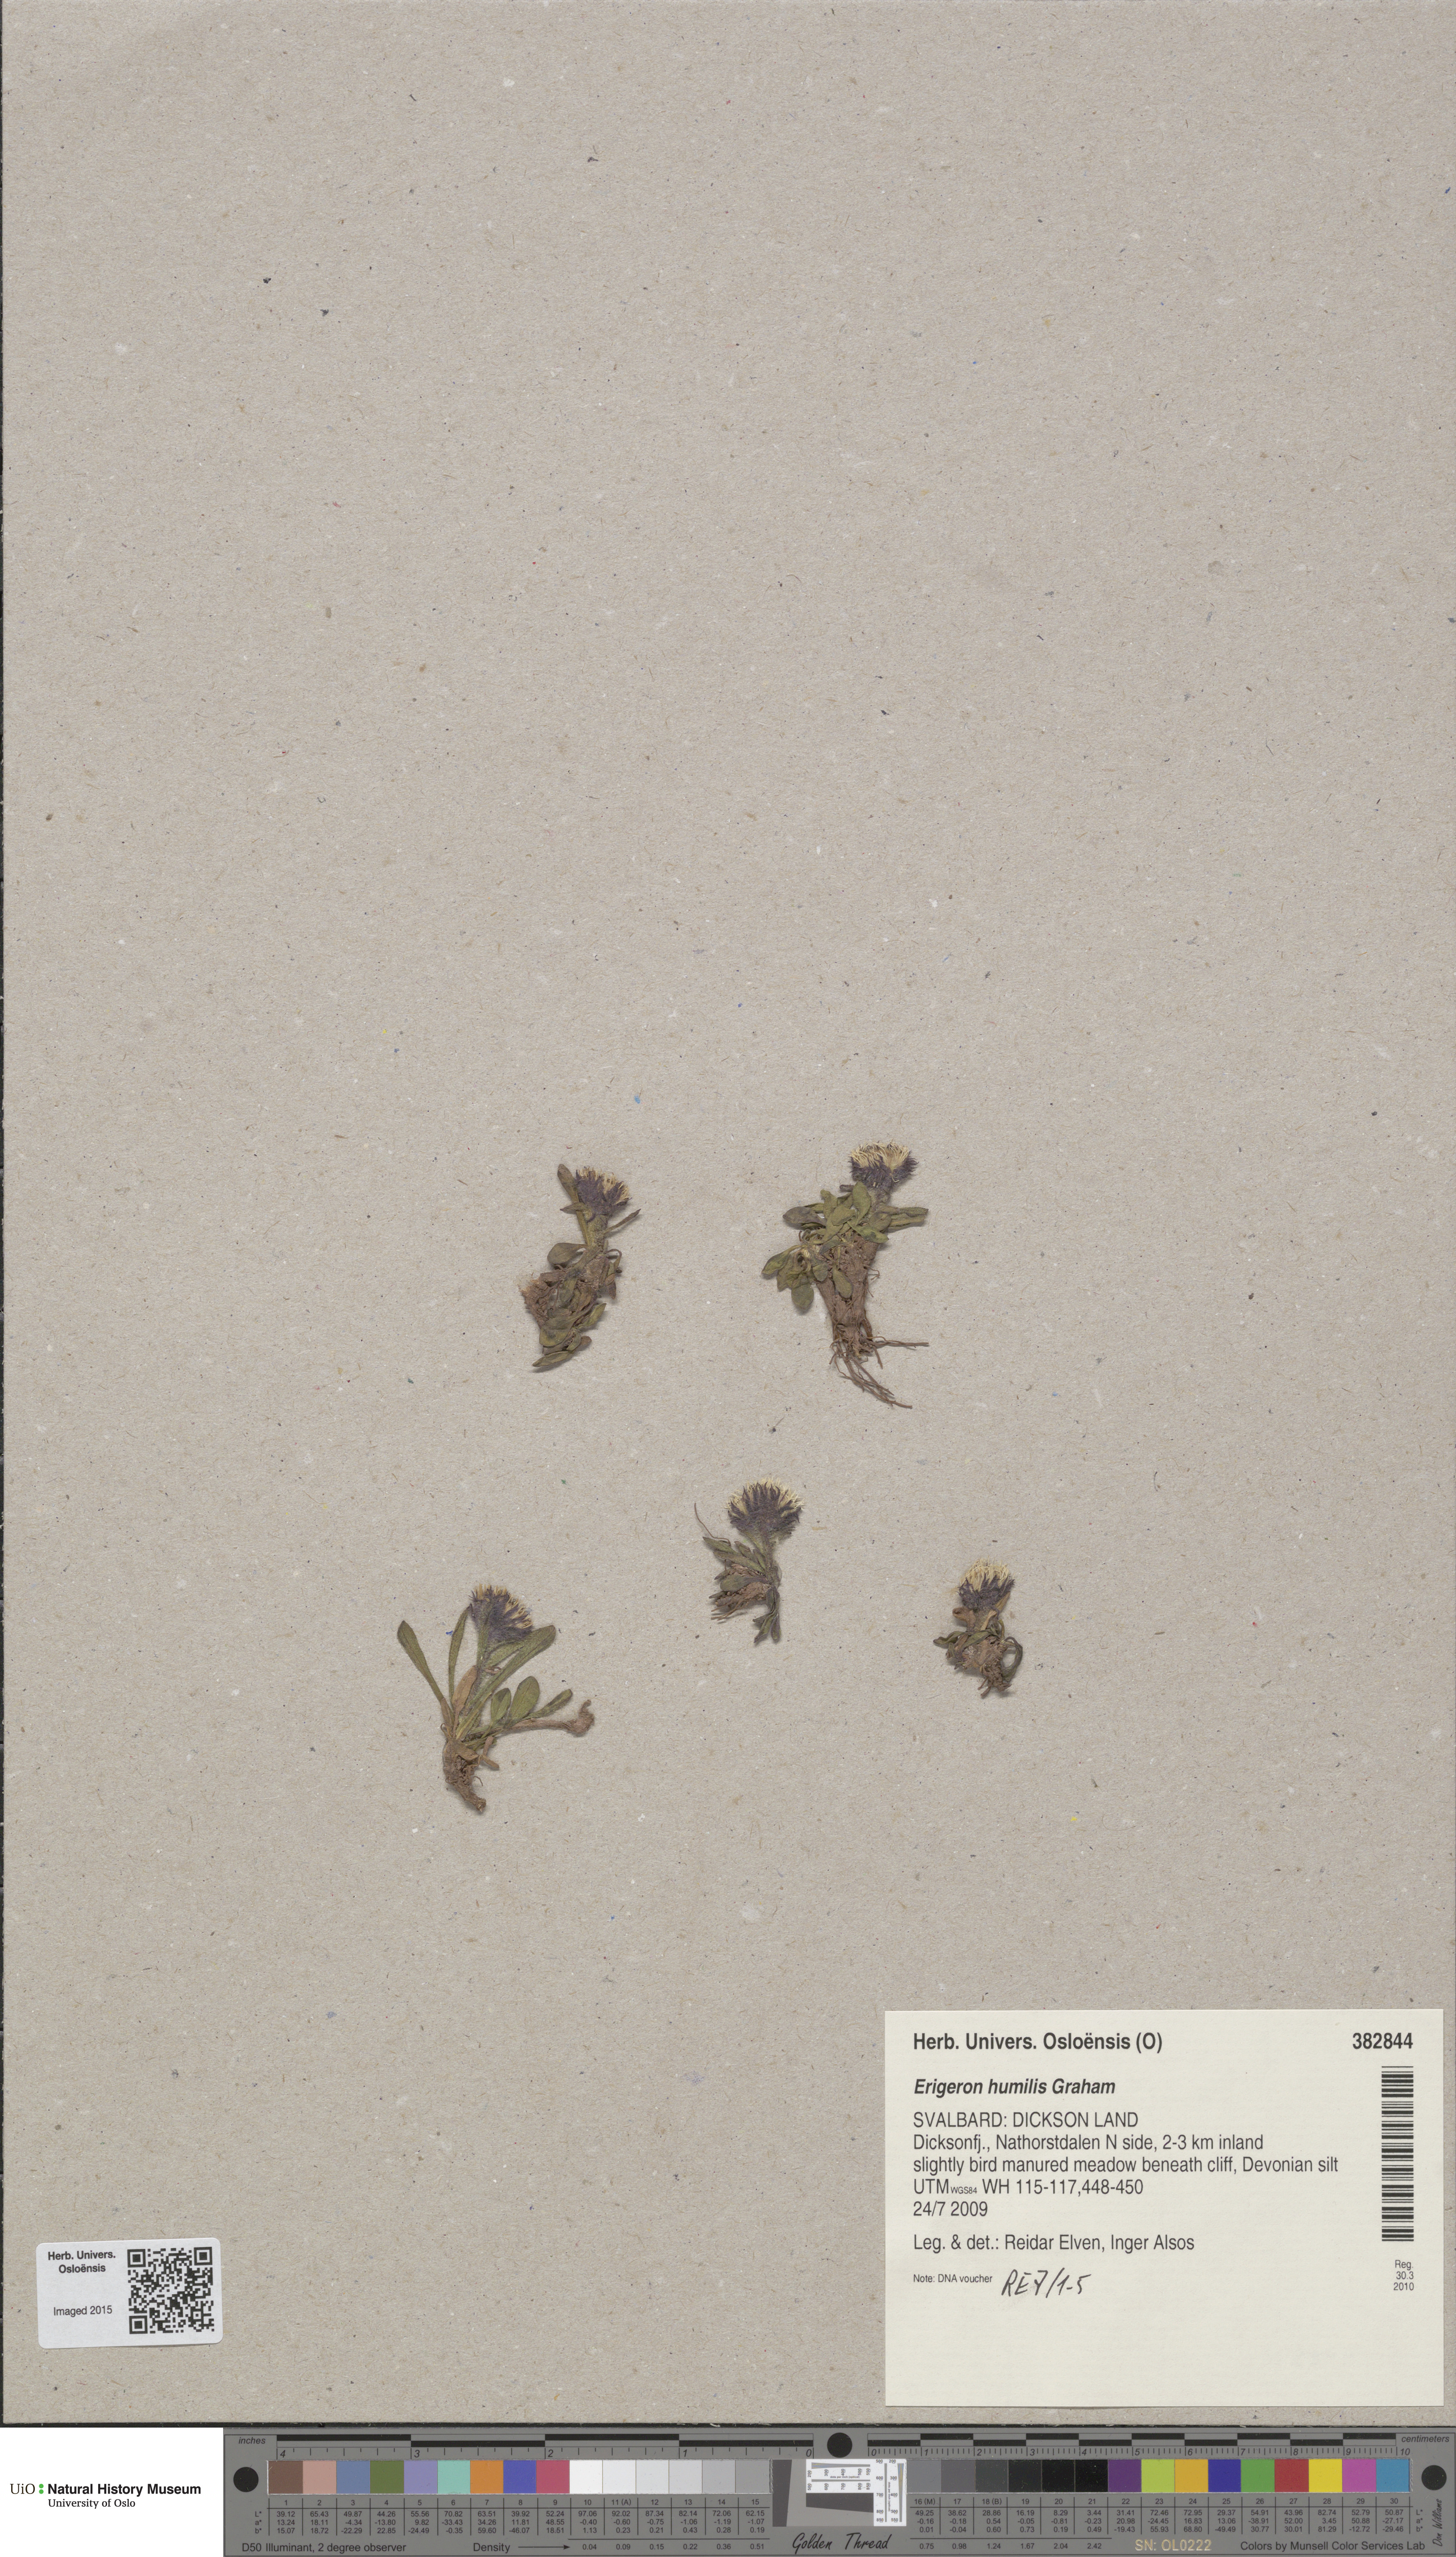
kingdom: Plantae
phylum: Tracheophyta
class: Magnoliopsida
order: Asterales
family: Asteraceae
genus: Erigeron
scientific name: Erigeron humilis
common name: Arctic-alpine fleabane
